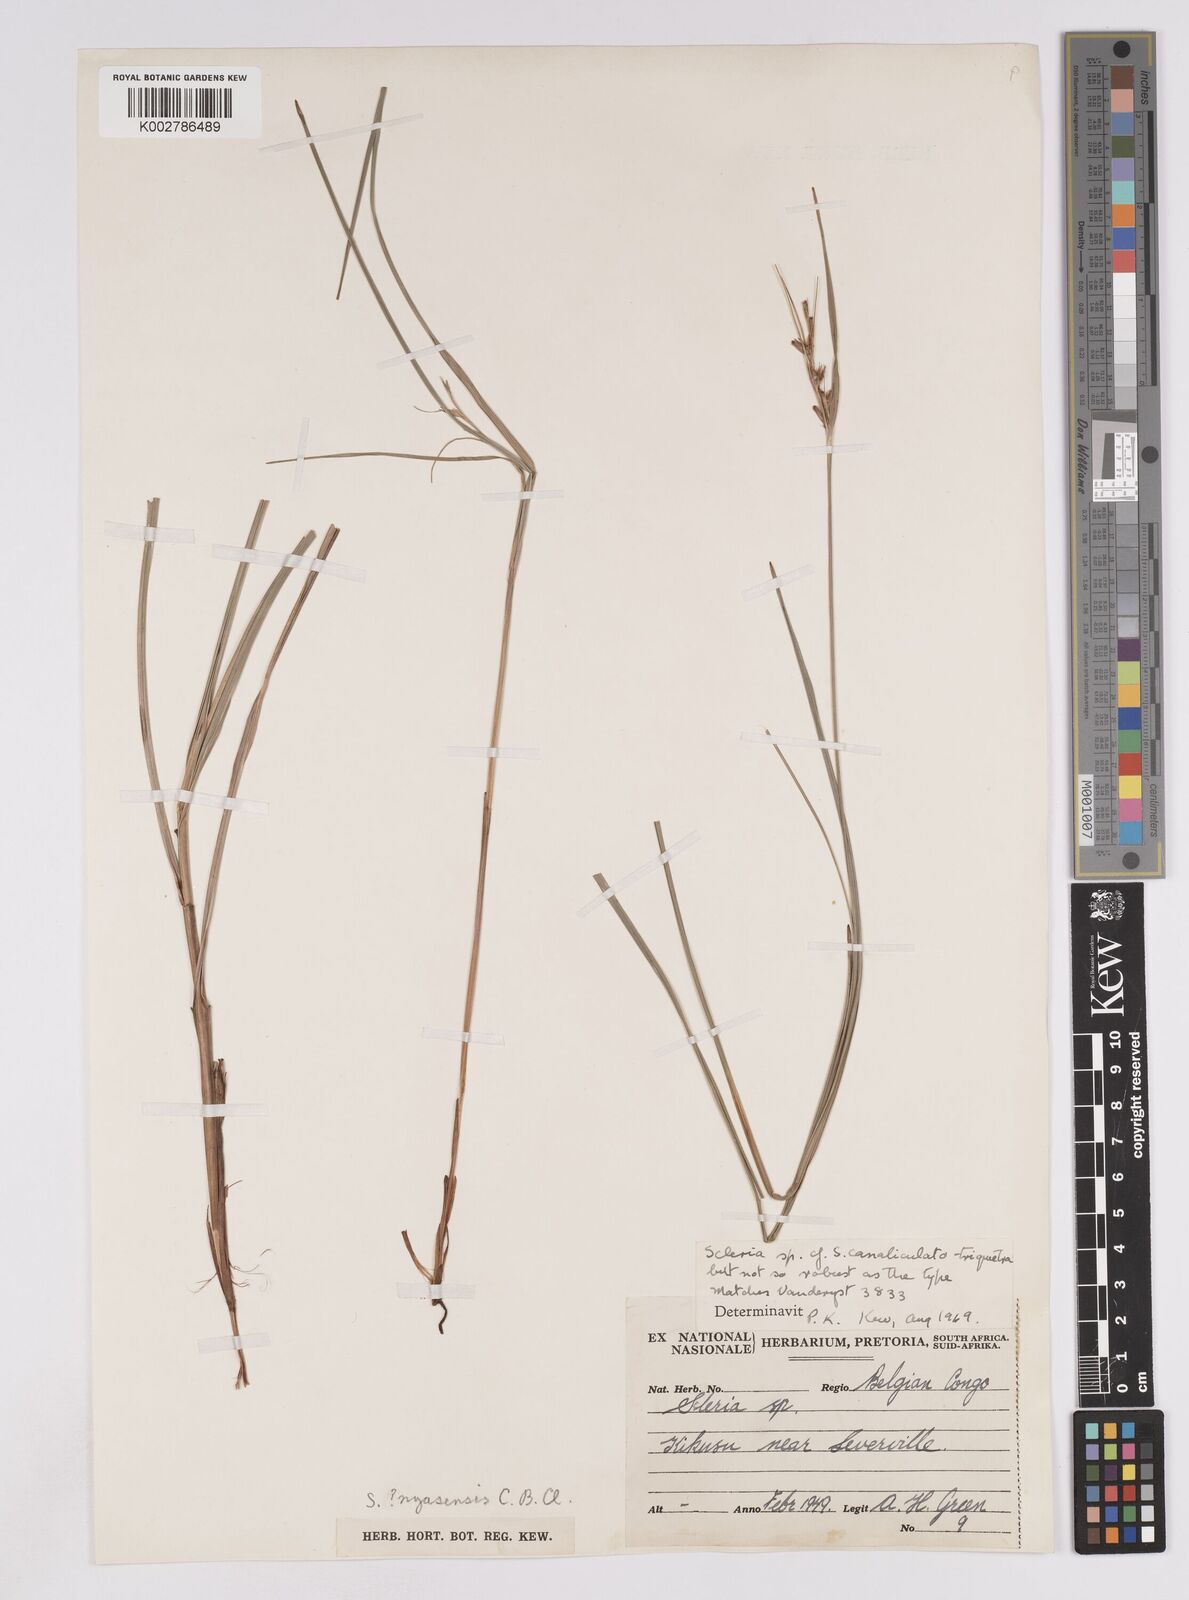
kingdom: Plantae
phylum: Tracheophyta
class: Liliopsida
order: Poales
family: Cyperaceae
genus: Scleria
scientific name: Scleria lagoensis
